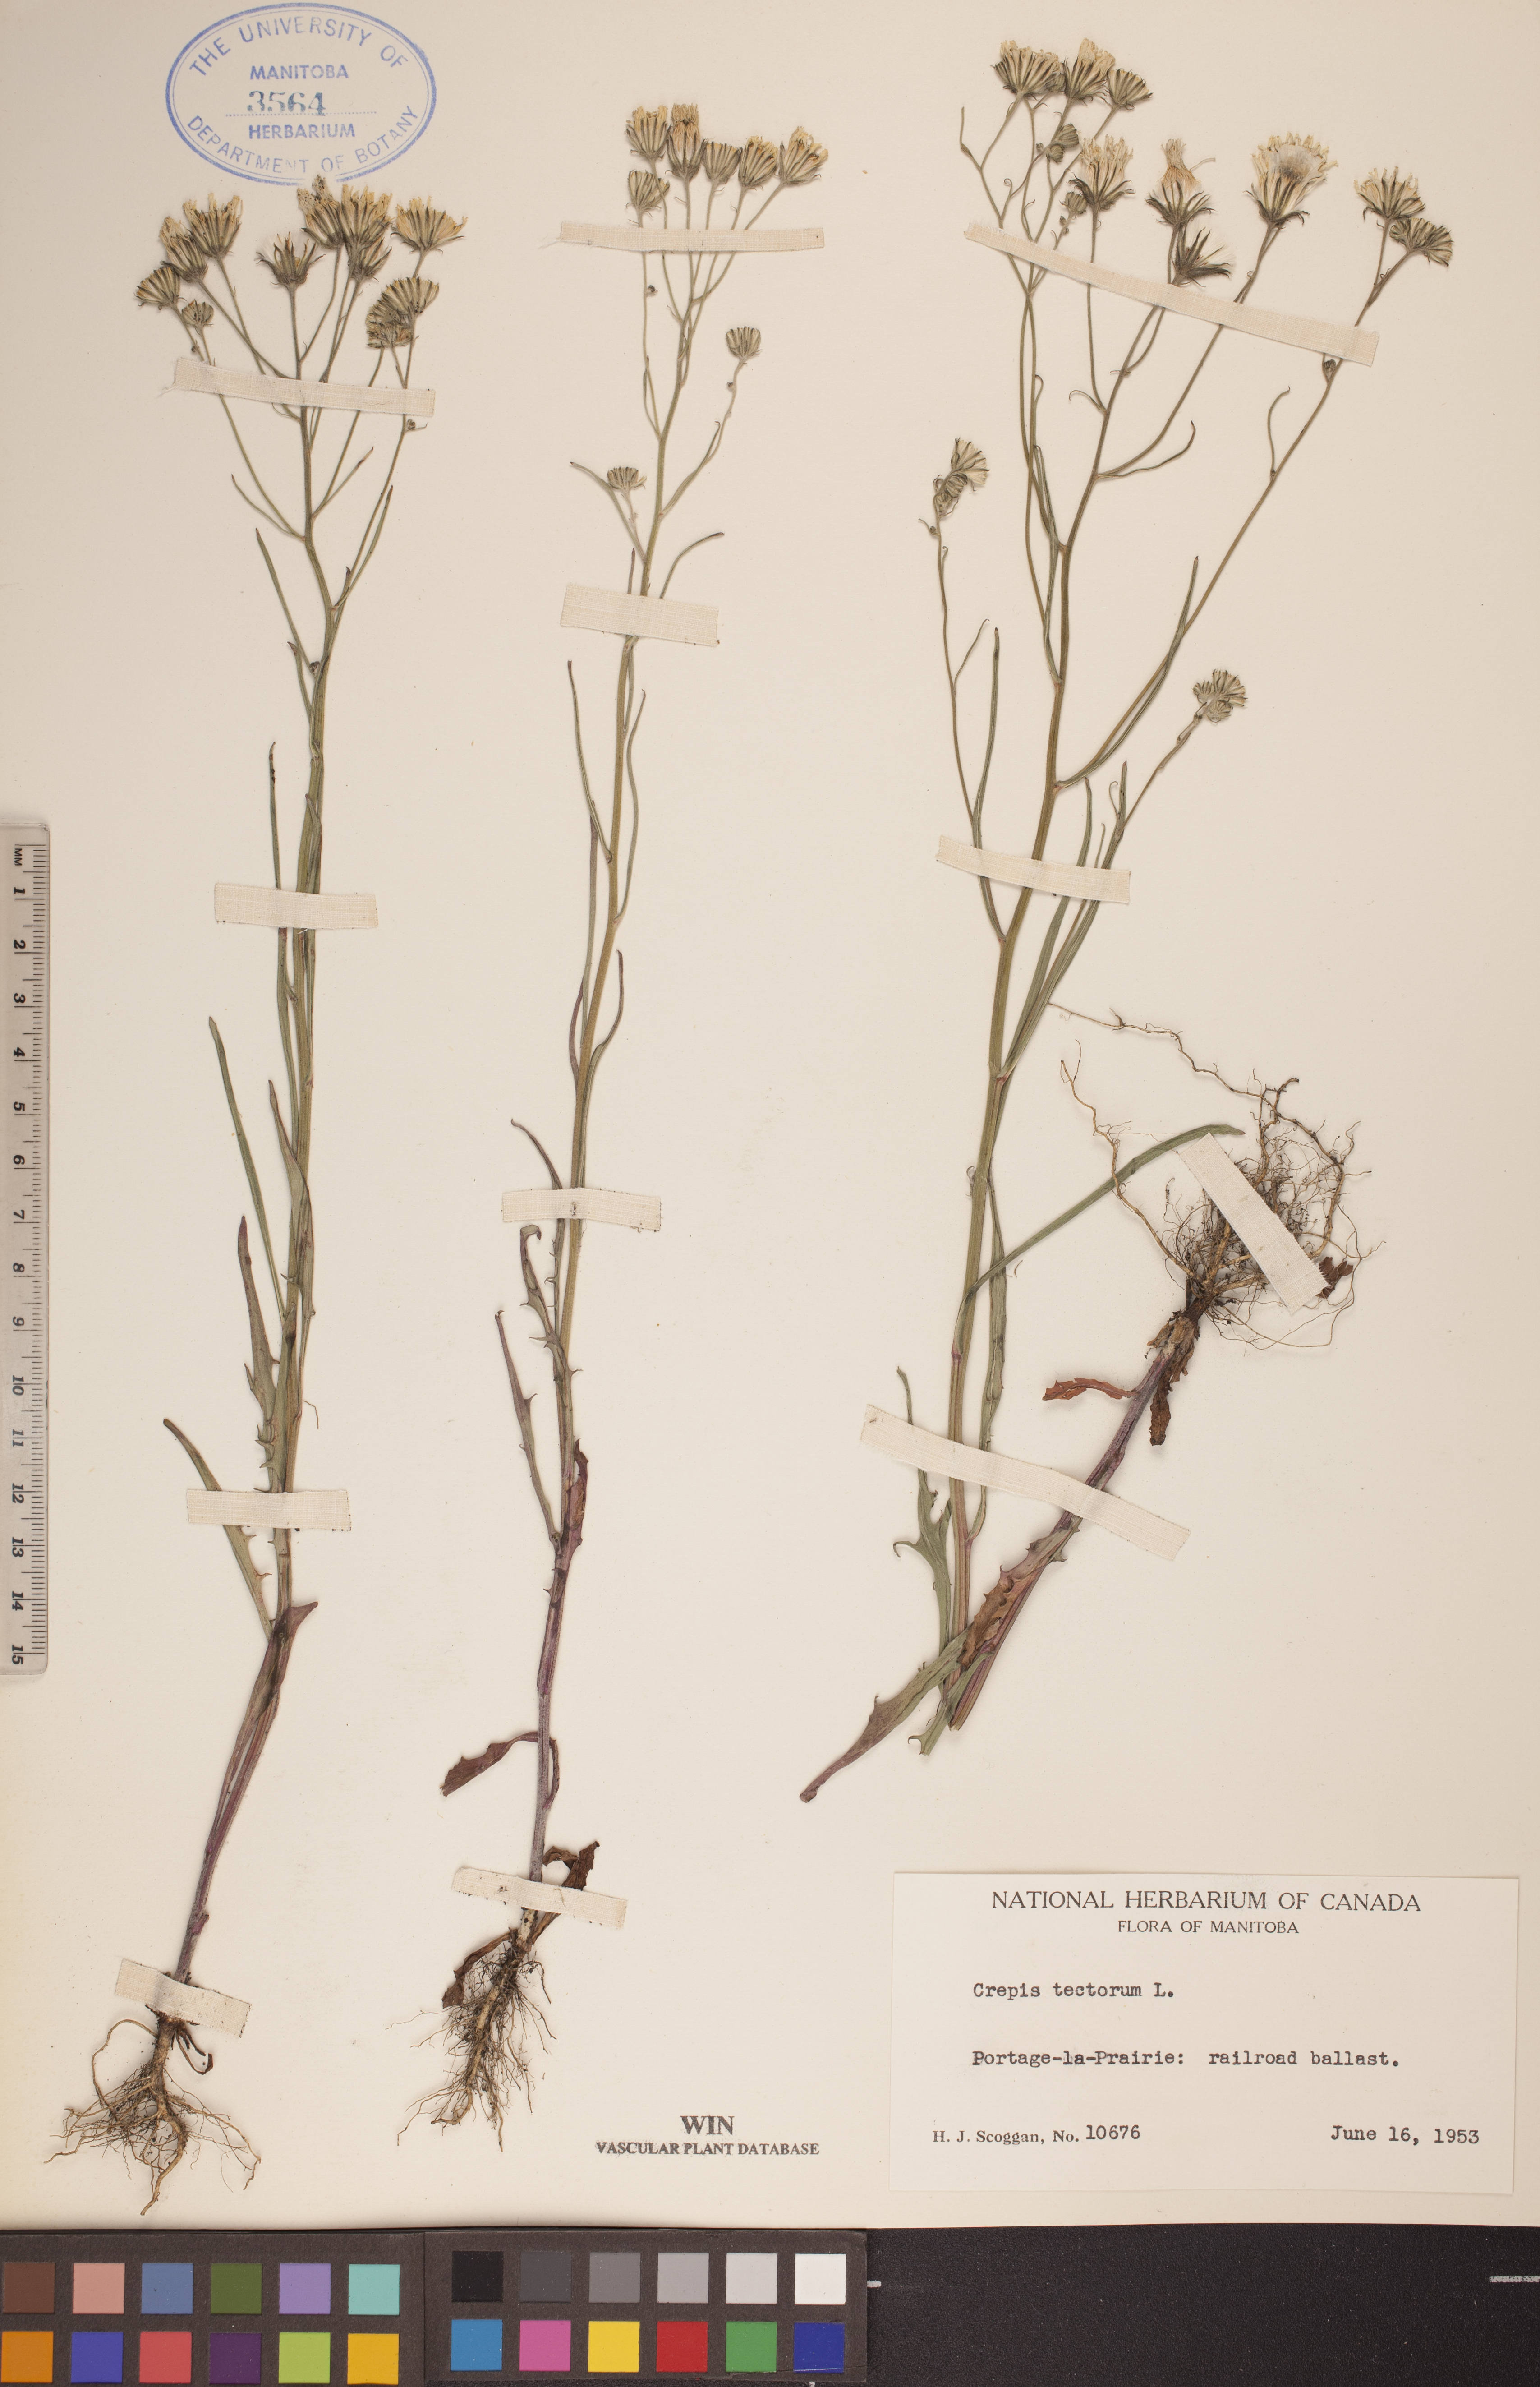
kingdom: Plantae
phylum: Tracheophyta
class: Magnoliopsida
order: Asterales
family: Asteraceae
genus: Crepis
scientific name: Crepis tectorum
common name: Narrow-leaved hawk's-beard
